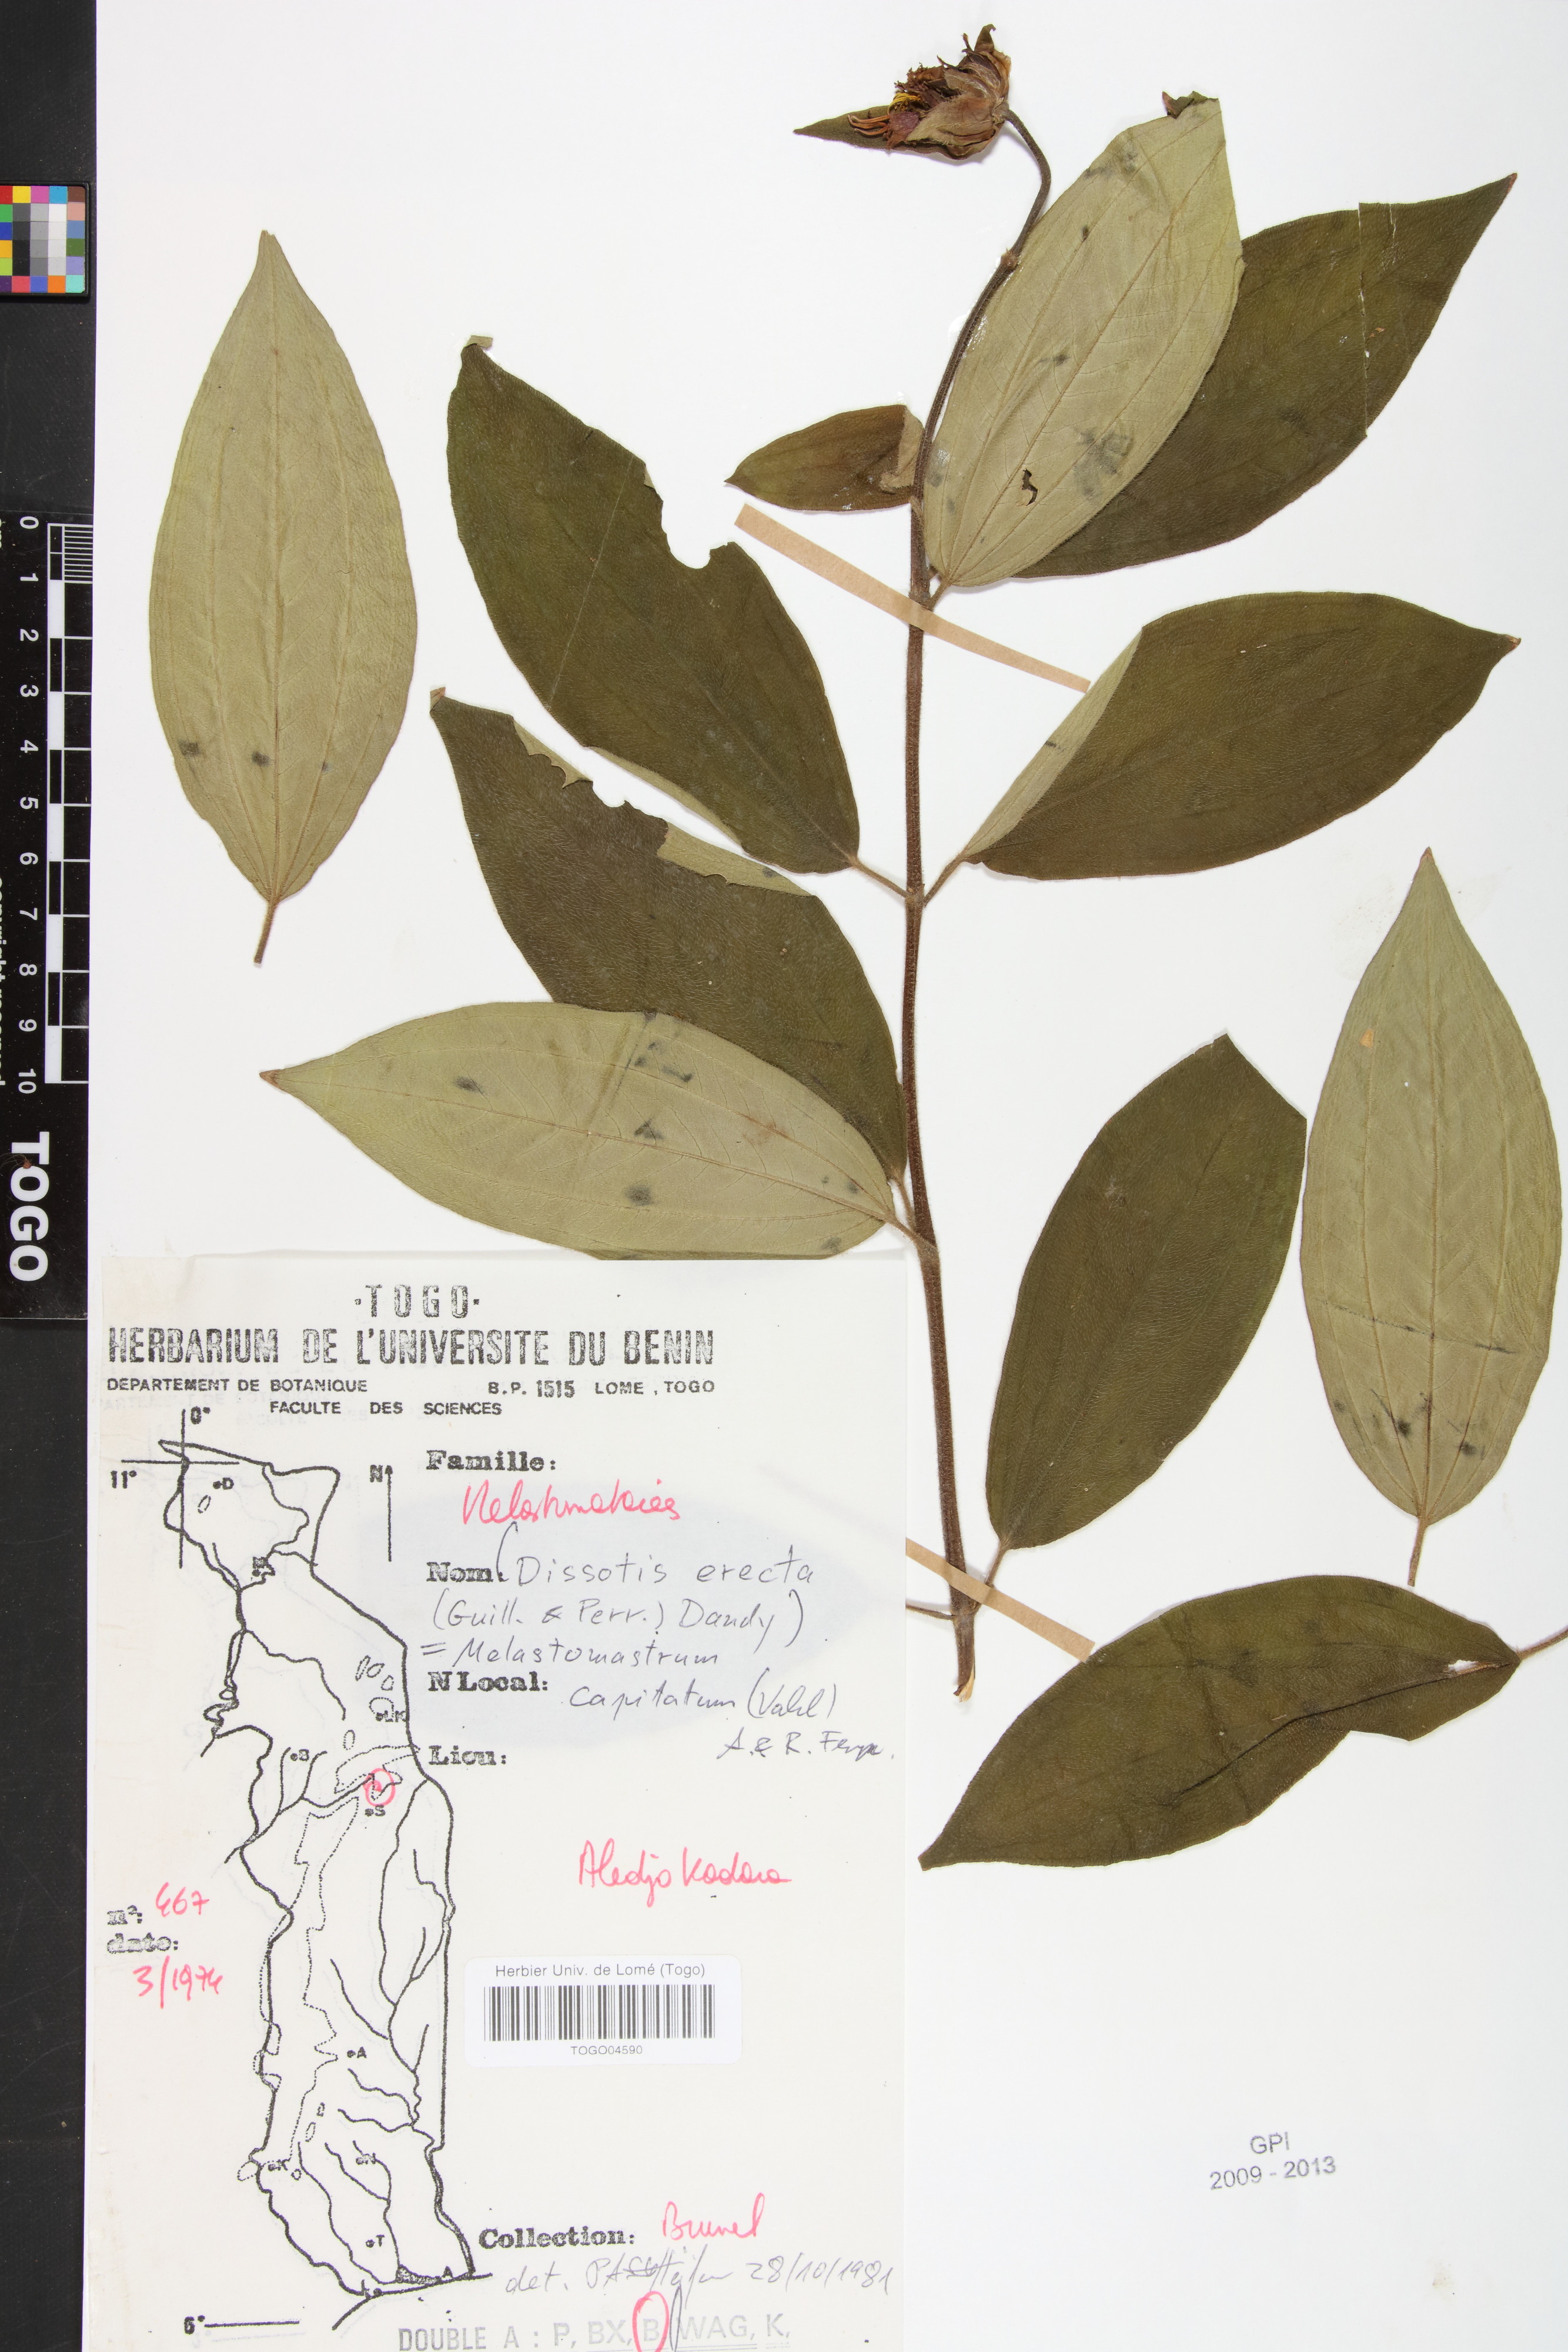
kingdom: Plantae
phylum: Tracheophyta
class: Magnoliopsida
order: Myrtales
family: Melastomataceae
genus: Melastomastrum
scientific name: Melastomastrum capitatum
